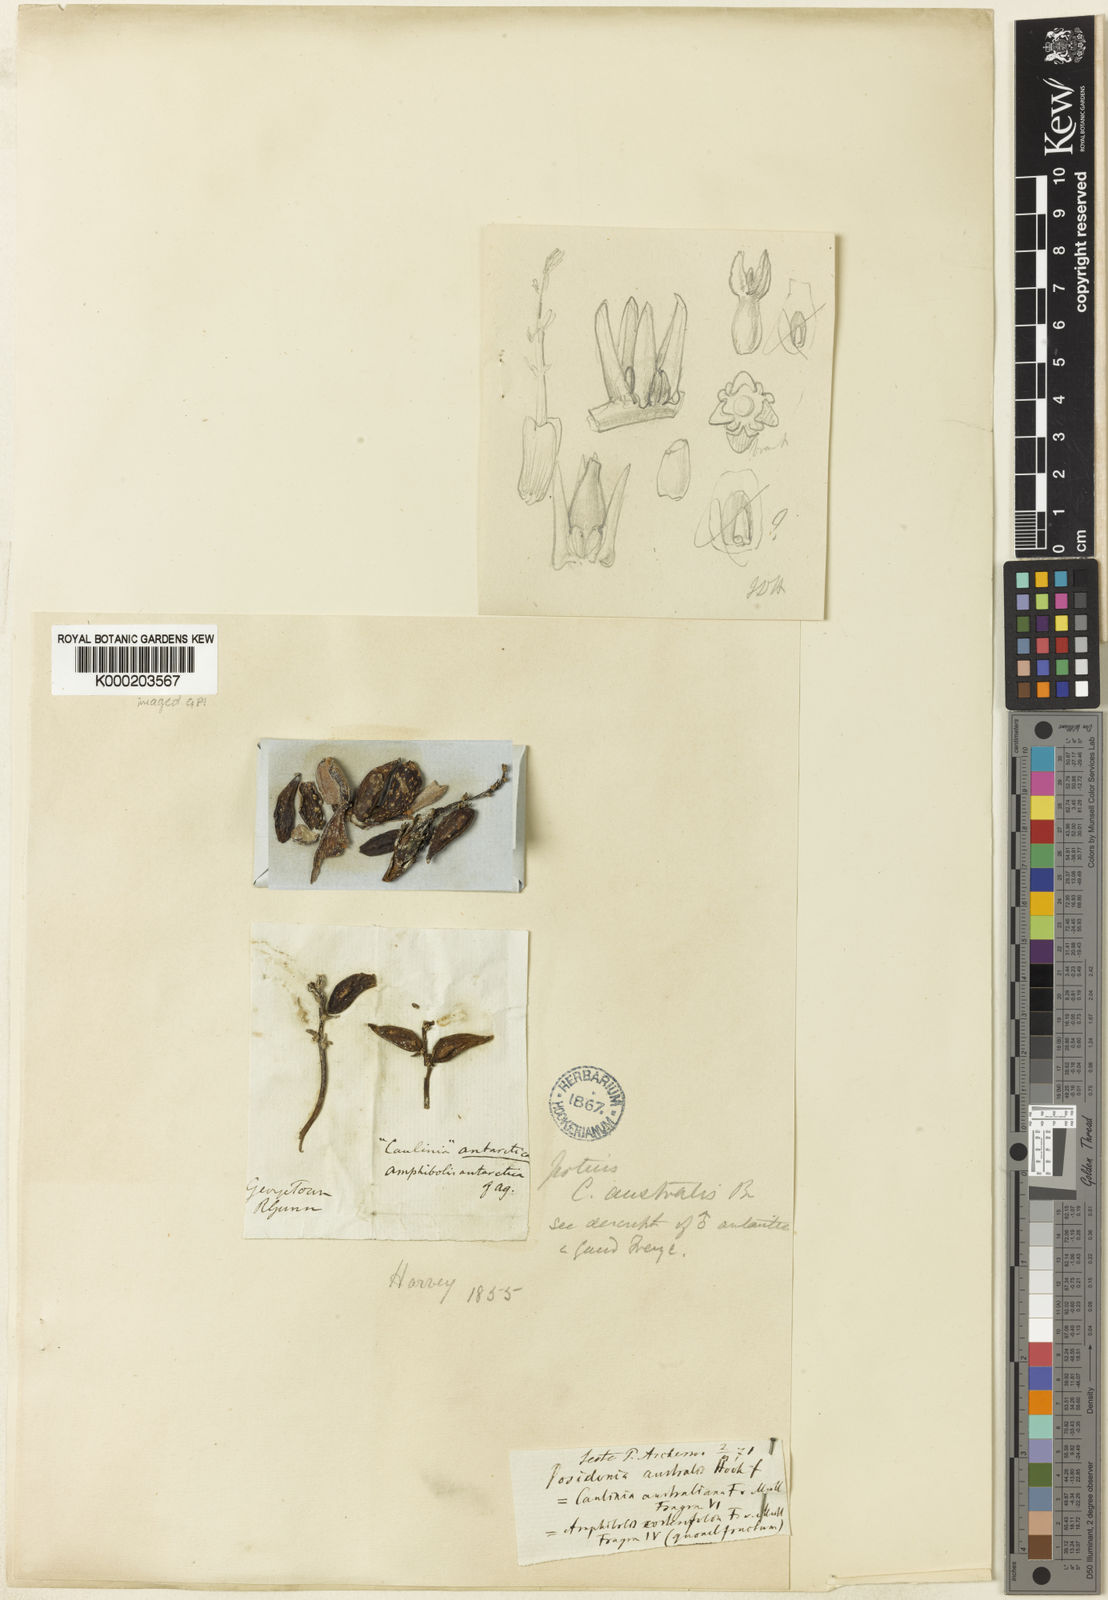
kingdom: Plantae
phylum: Tracheophyta
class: Liliopsida
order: Alismatales
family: Posidoniaceae
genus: Posidonia
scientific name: Posidonia australis
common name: Species code: pa
